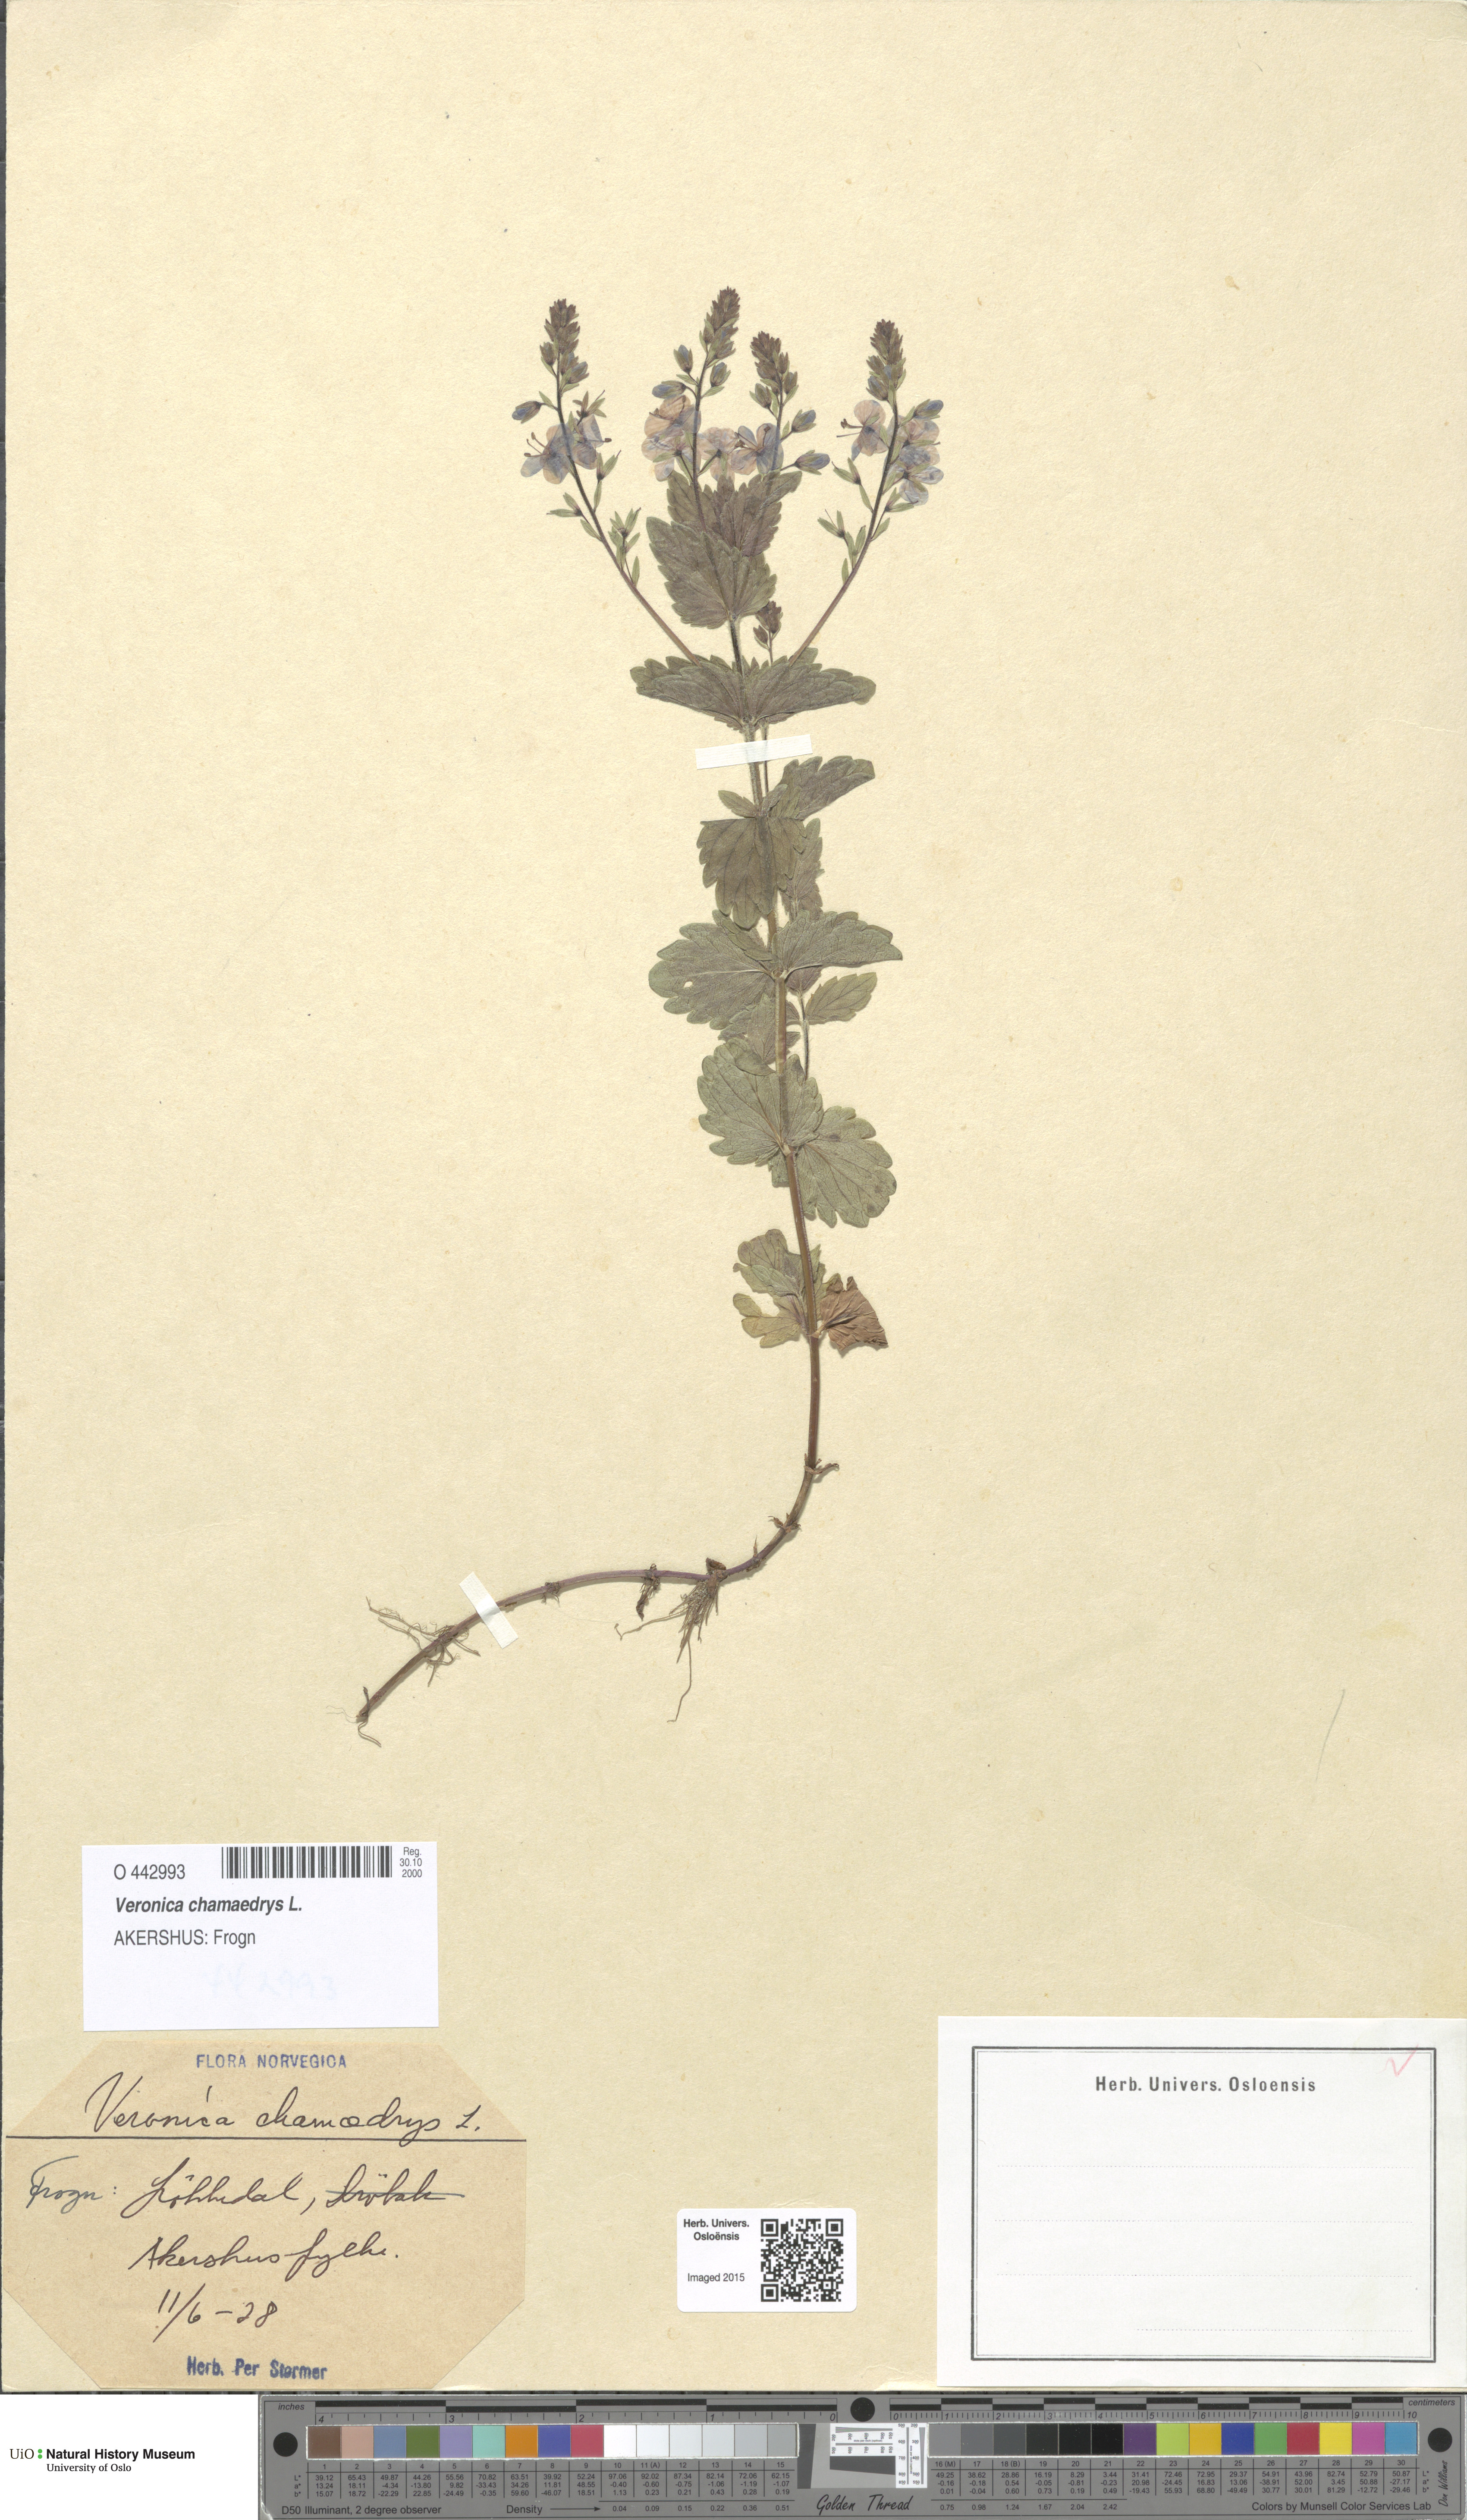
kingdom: Plantae
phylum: Tracheophyta
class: Magnoliopsida
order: Lamiales
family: Plantaginaceae
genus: Veronica
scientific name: Veronica chamaedrys
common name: Germander speedwell
